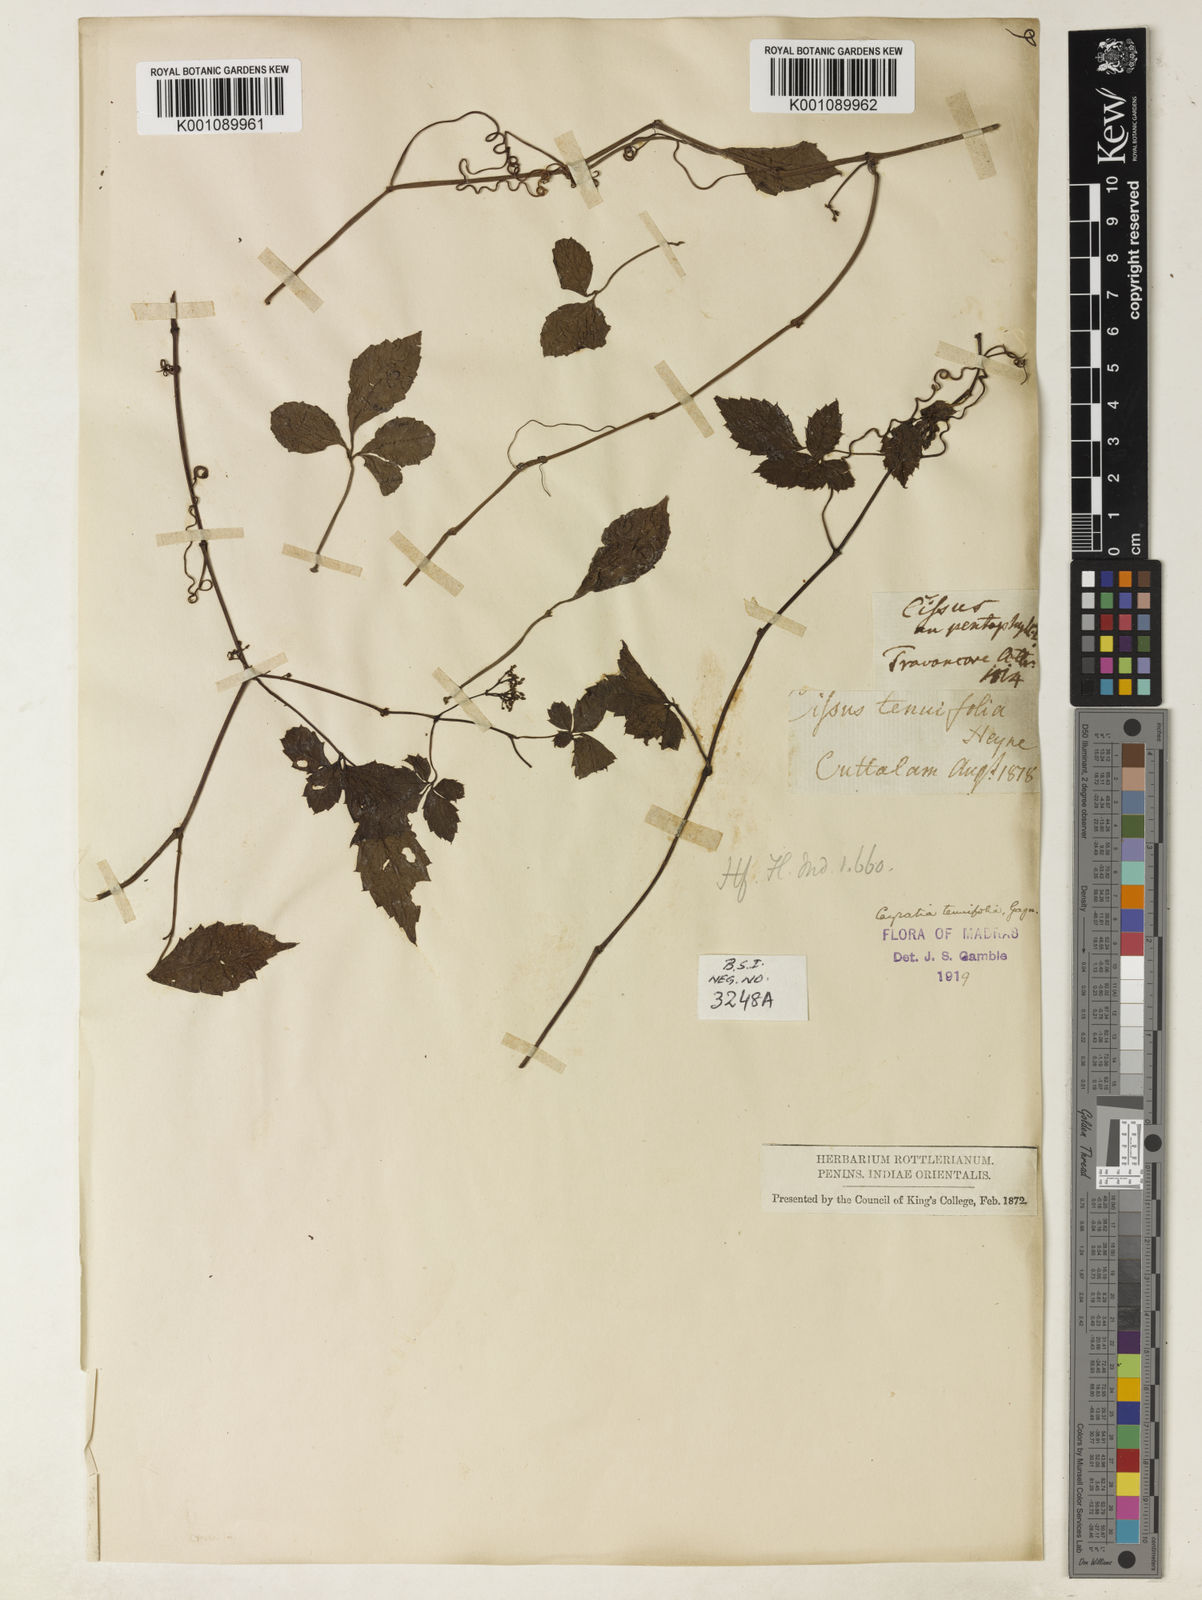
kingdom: Plantae
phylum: Tracheophyta
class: Magnoliopsida
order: Vitales
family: Vitaceae
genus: Causonis
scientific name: Causonis tenuifolia
